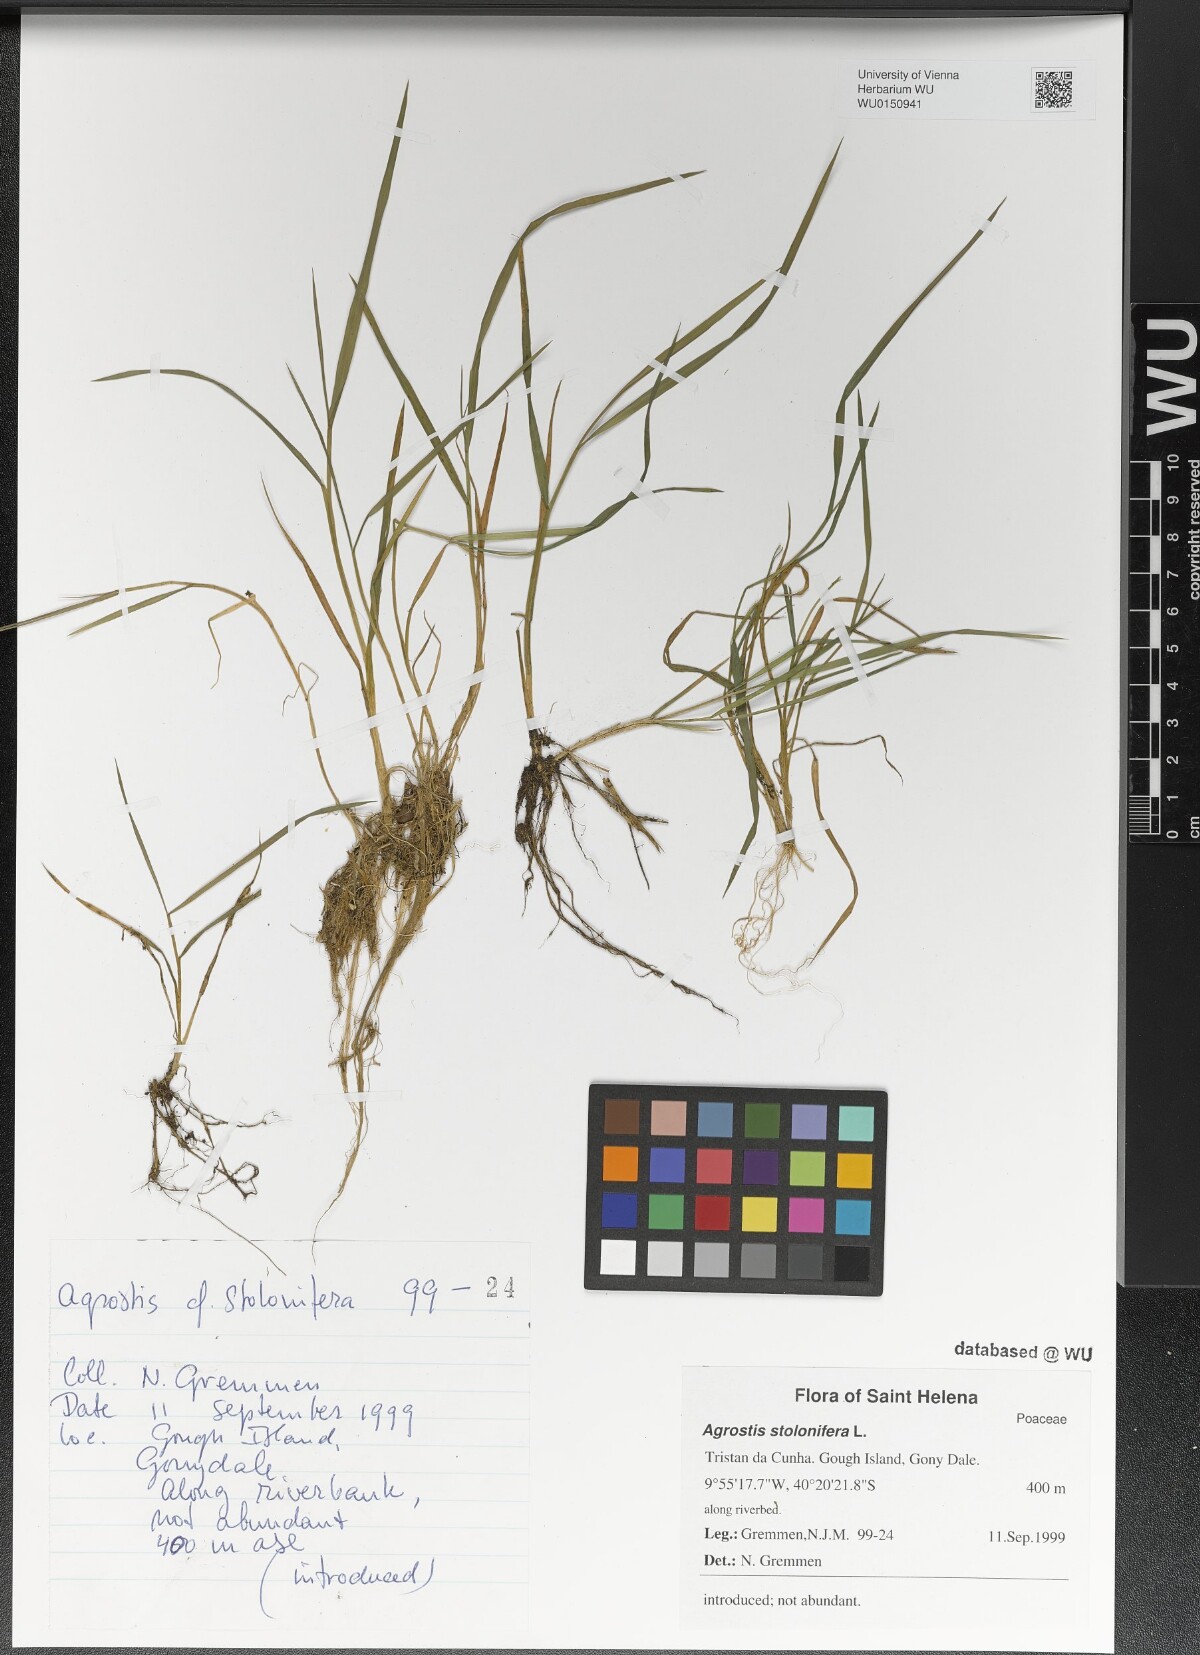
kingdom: Plantae
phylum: Tracheophyta
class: Liliopsida
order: Poales
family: Poaceae
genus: Agrostis
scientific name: Agrostis stolonifera
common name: Creeping bentgrass
